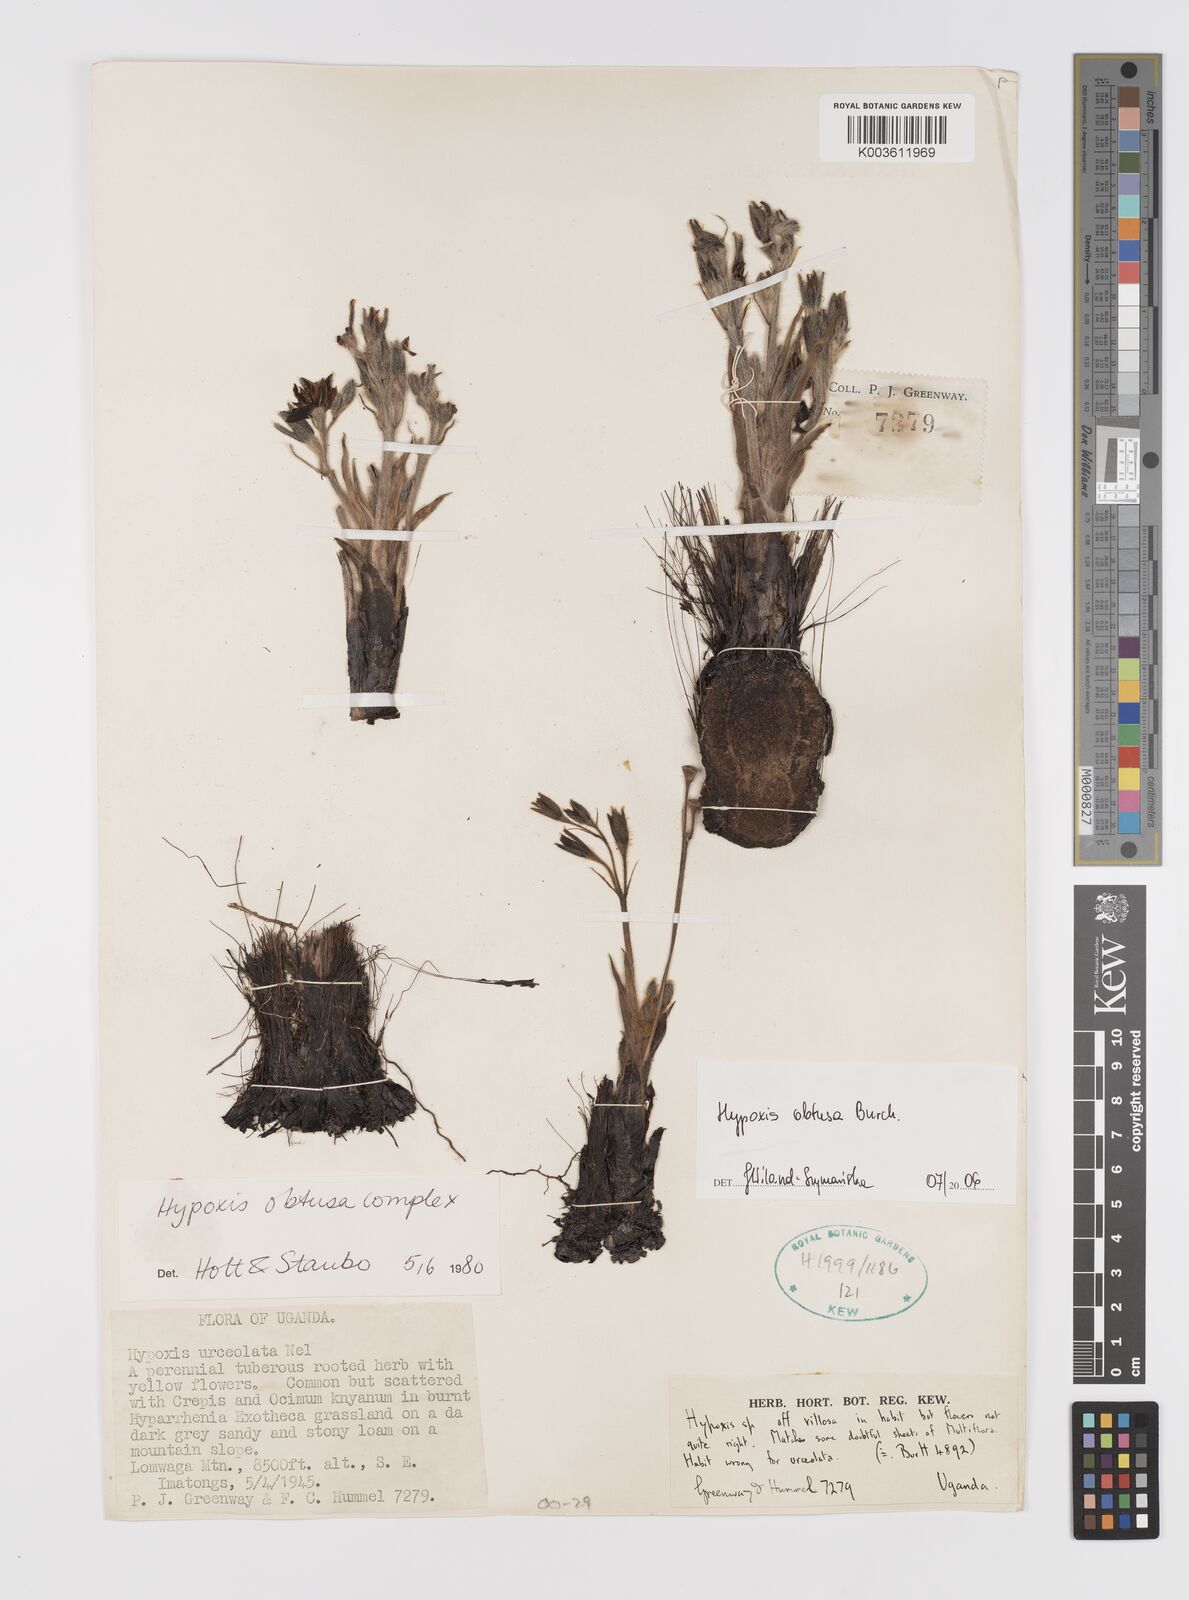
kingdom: Plantae
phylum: Tracheophyta
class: Liliopsida
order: Asparagales
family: Hypoxidaceae
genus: Hypoxis
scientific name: Hypoxis obtusa
